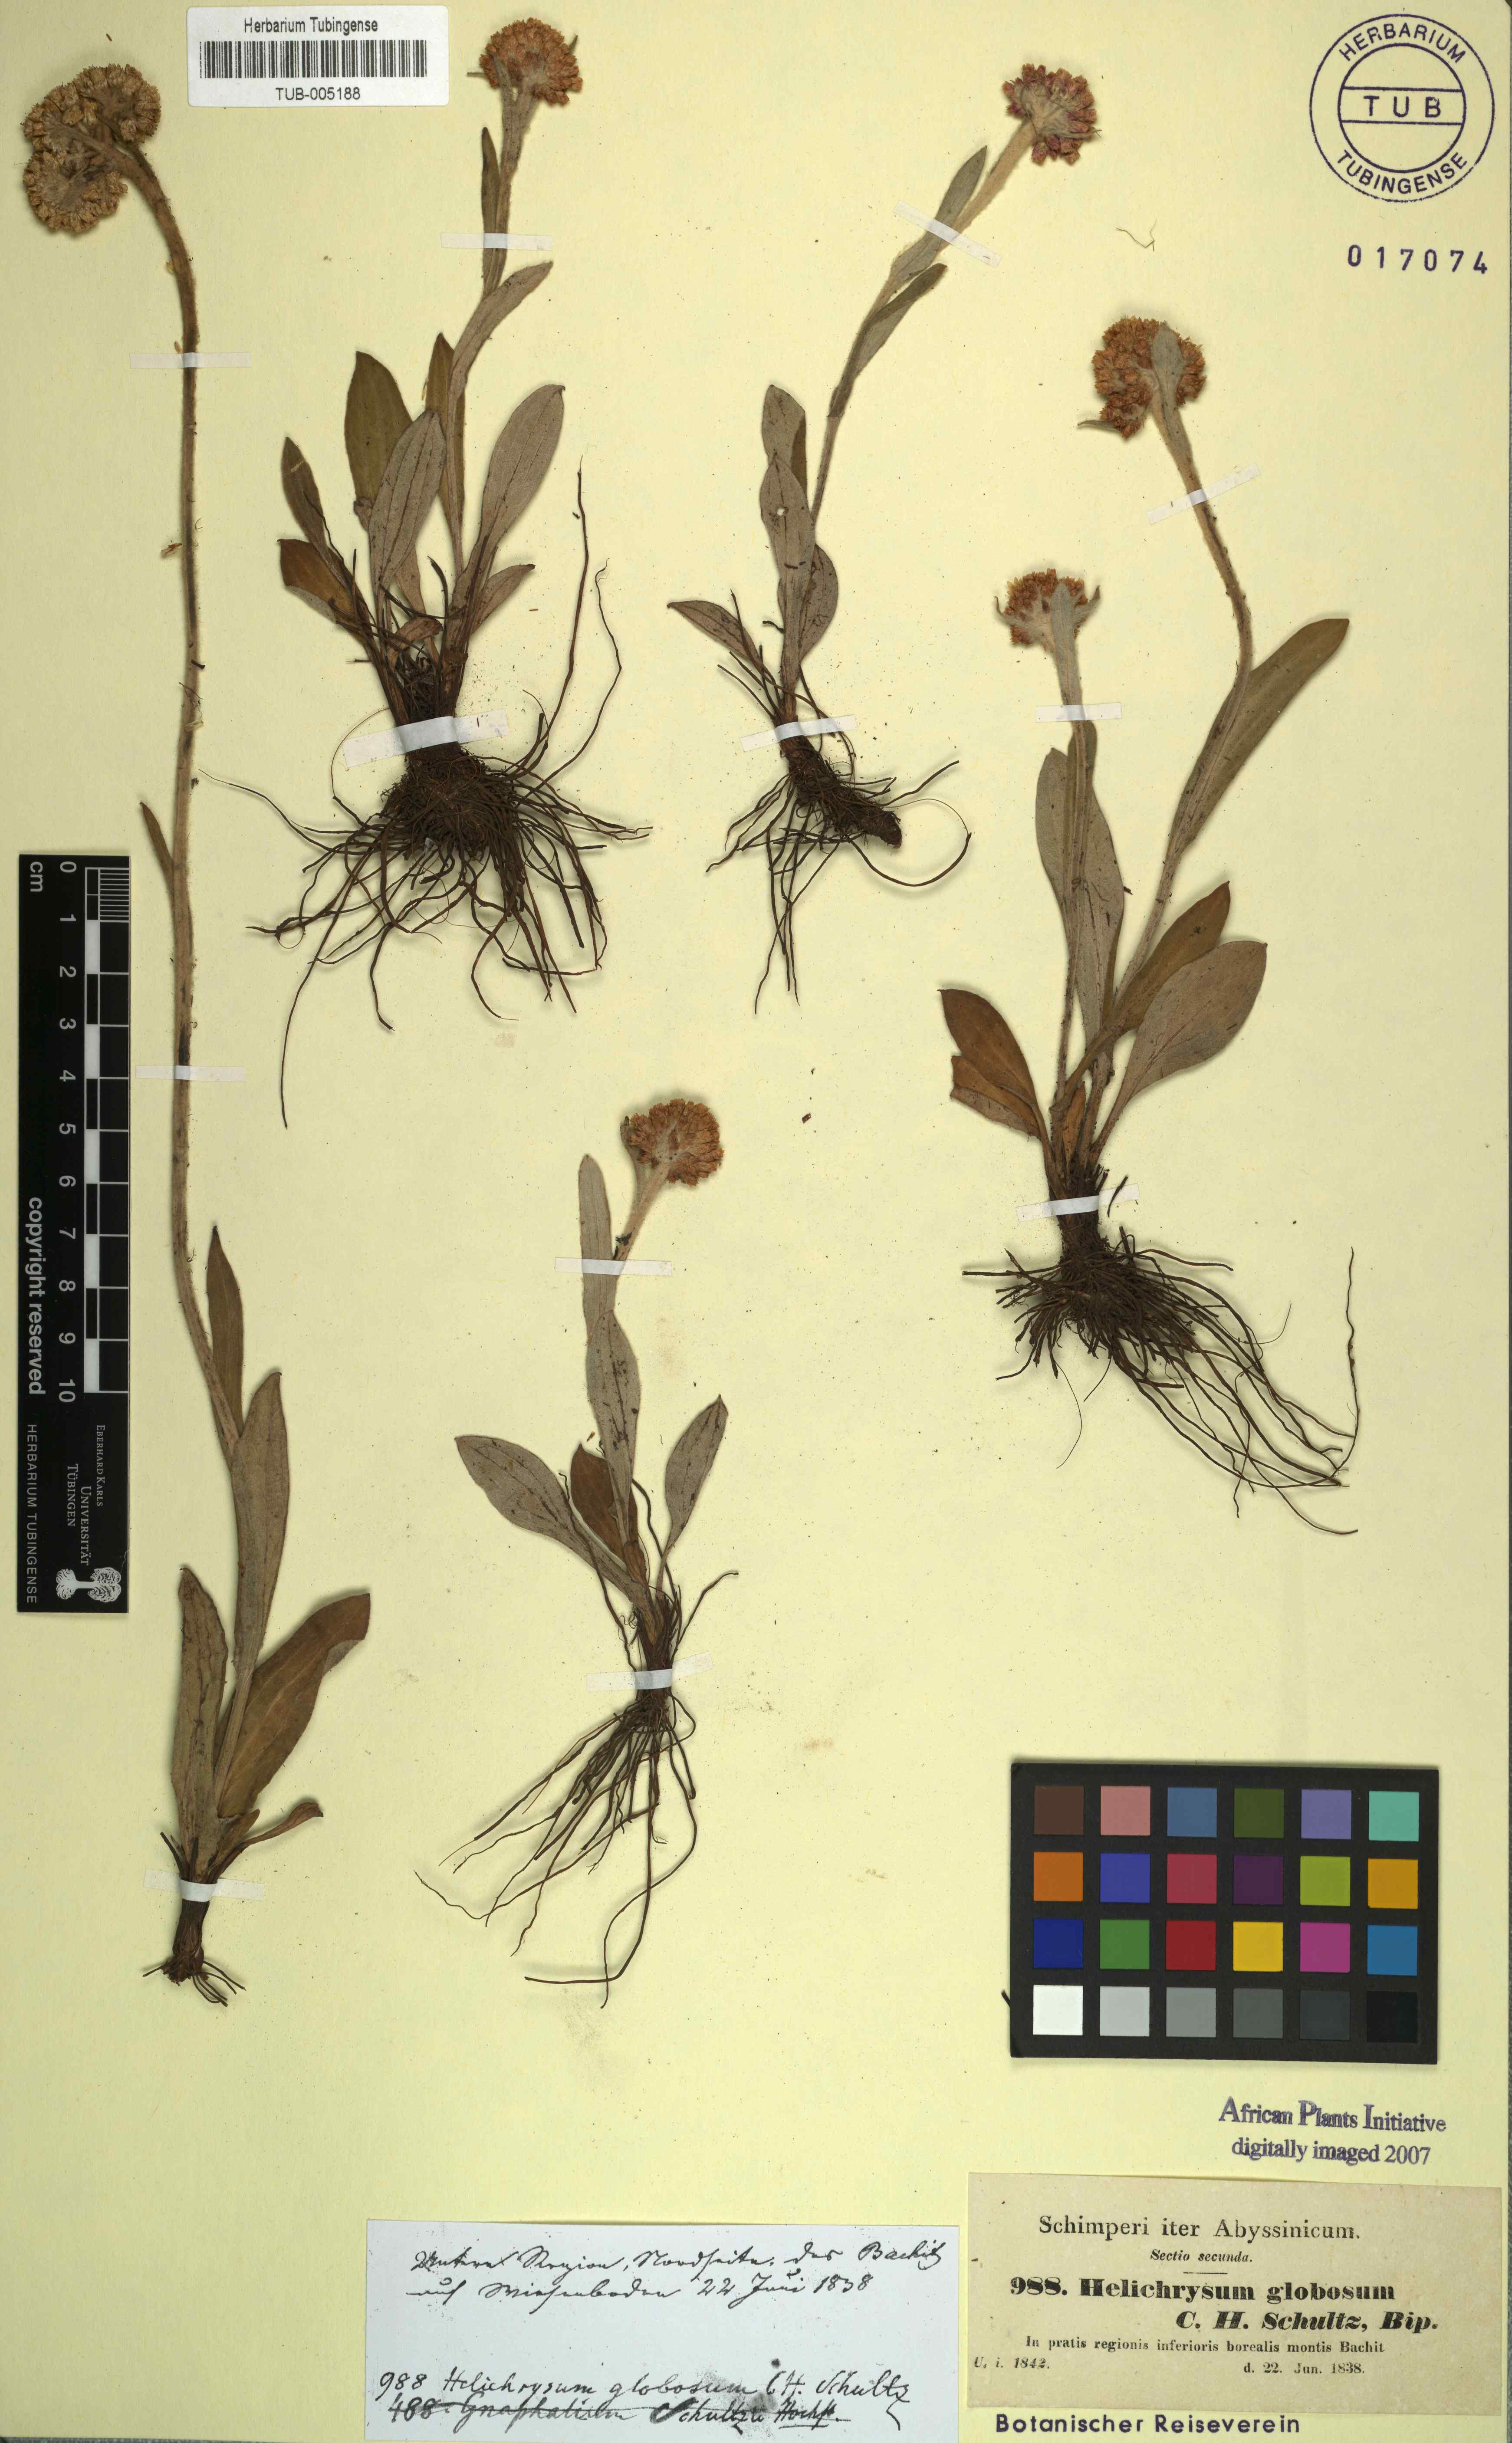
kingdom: Plantae
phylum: Tracheophyta
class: Magnoliopsida
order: Asterales
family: Asteraceae
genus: Helichrysum
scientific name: Helichrysum globosum
